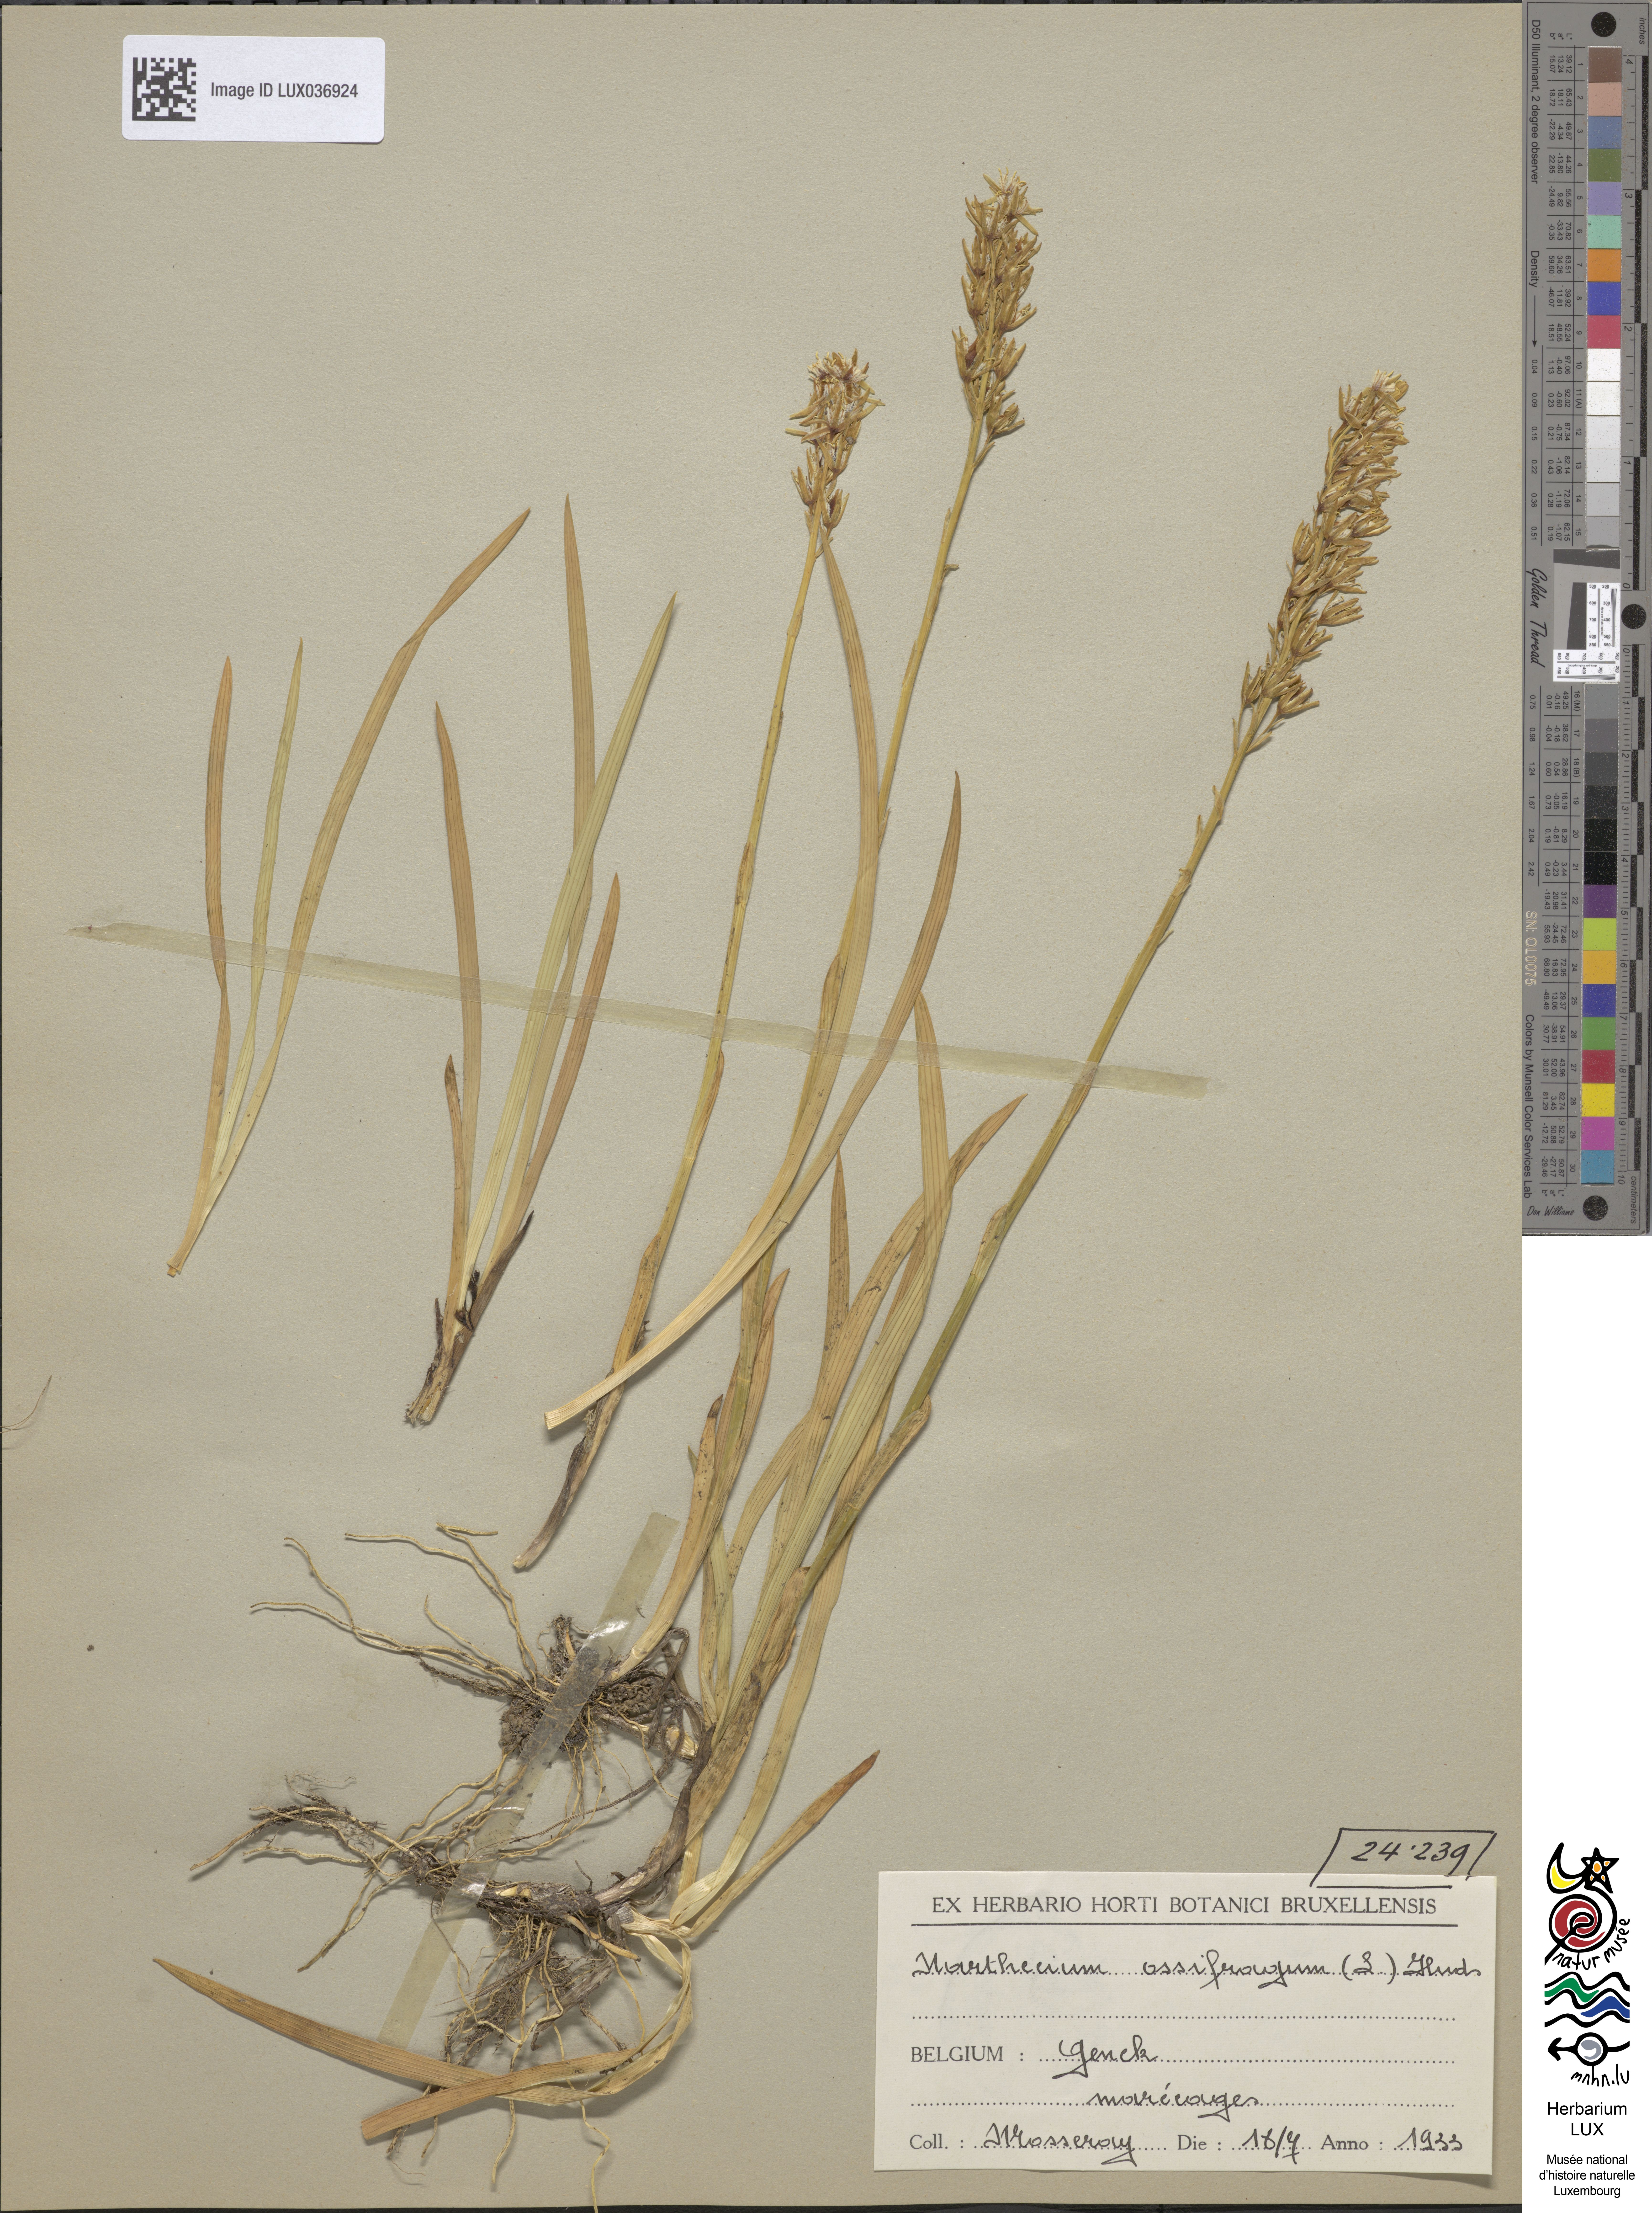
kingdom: Plantae
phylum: Tracheophyta
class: Liliopsida
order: Dioscoreales
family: Nartheciaceae
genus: Narthecium
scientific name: Narthecium ossifragum
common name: Bog asphodel
